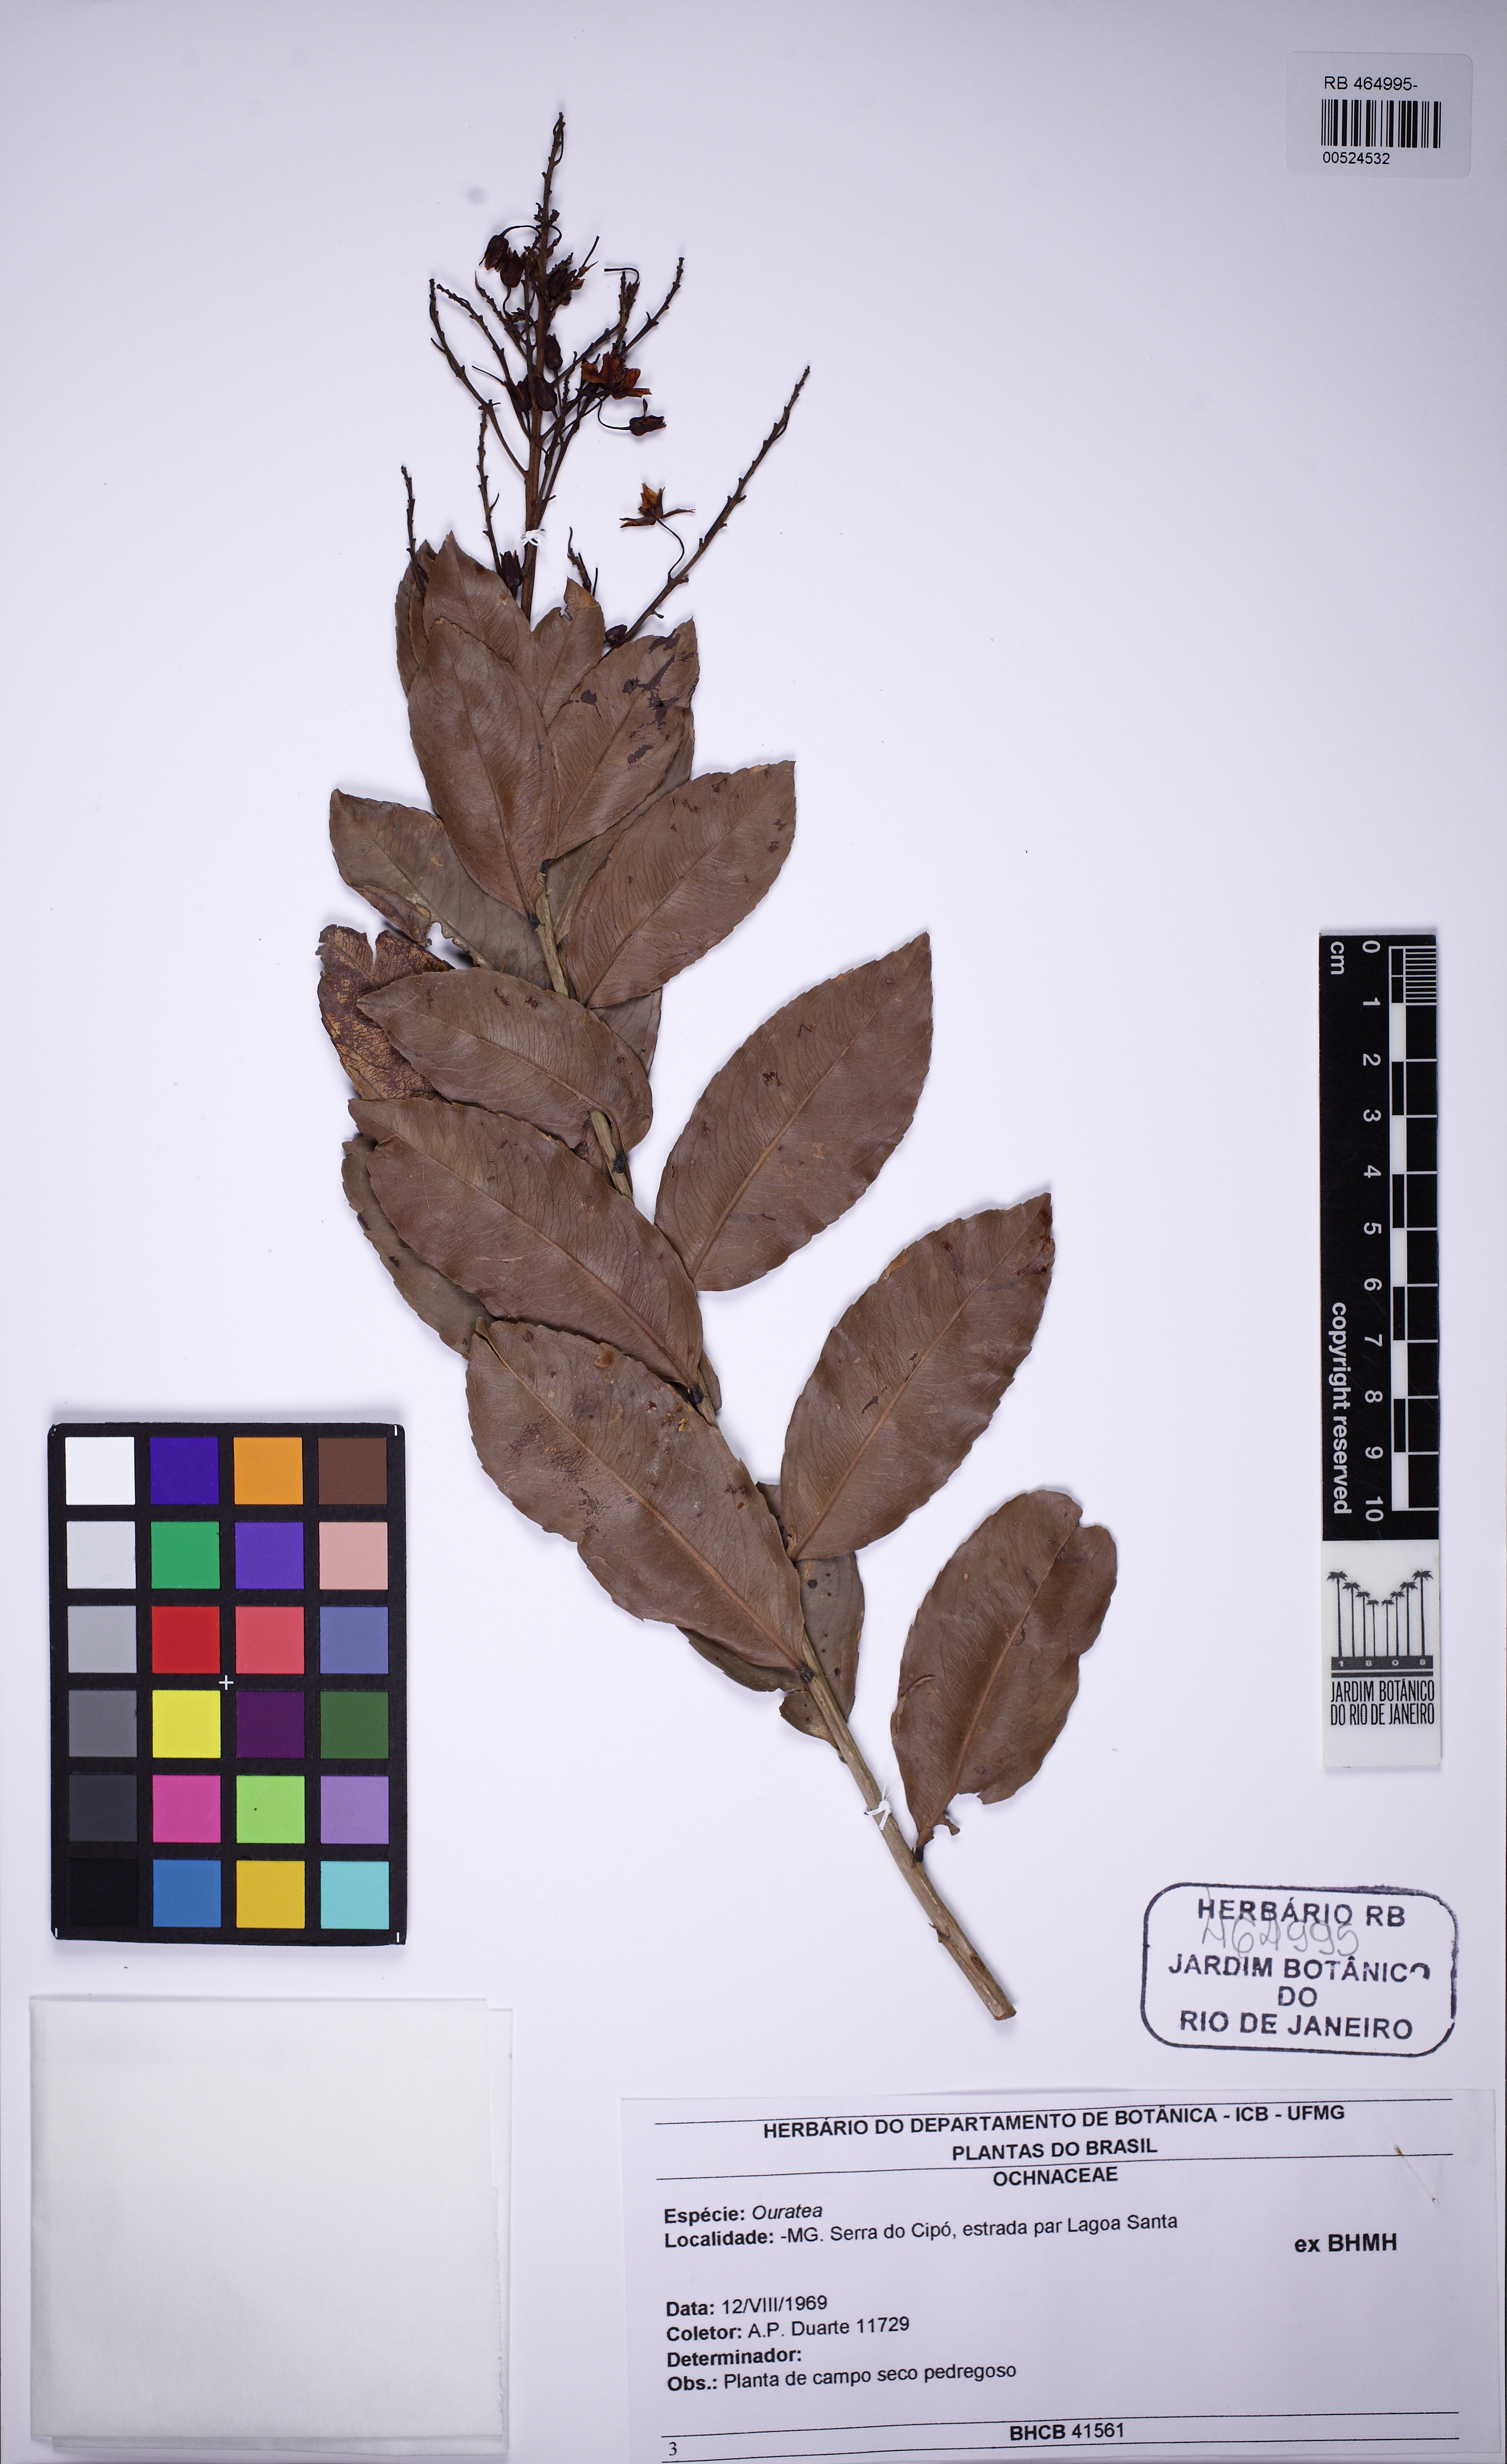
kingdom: Plantae
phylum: Tracheophyta
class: Magnoliopsida
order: Malpighiales
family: Ochnaceae
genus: Ouratea
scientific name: Ouratea
